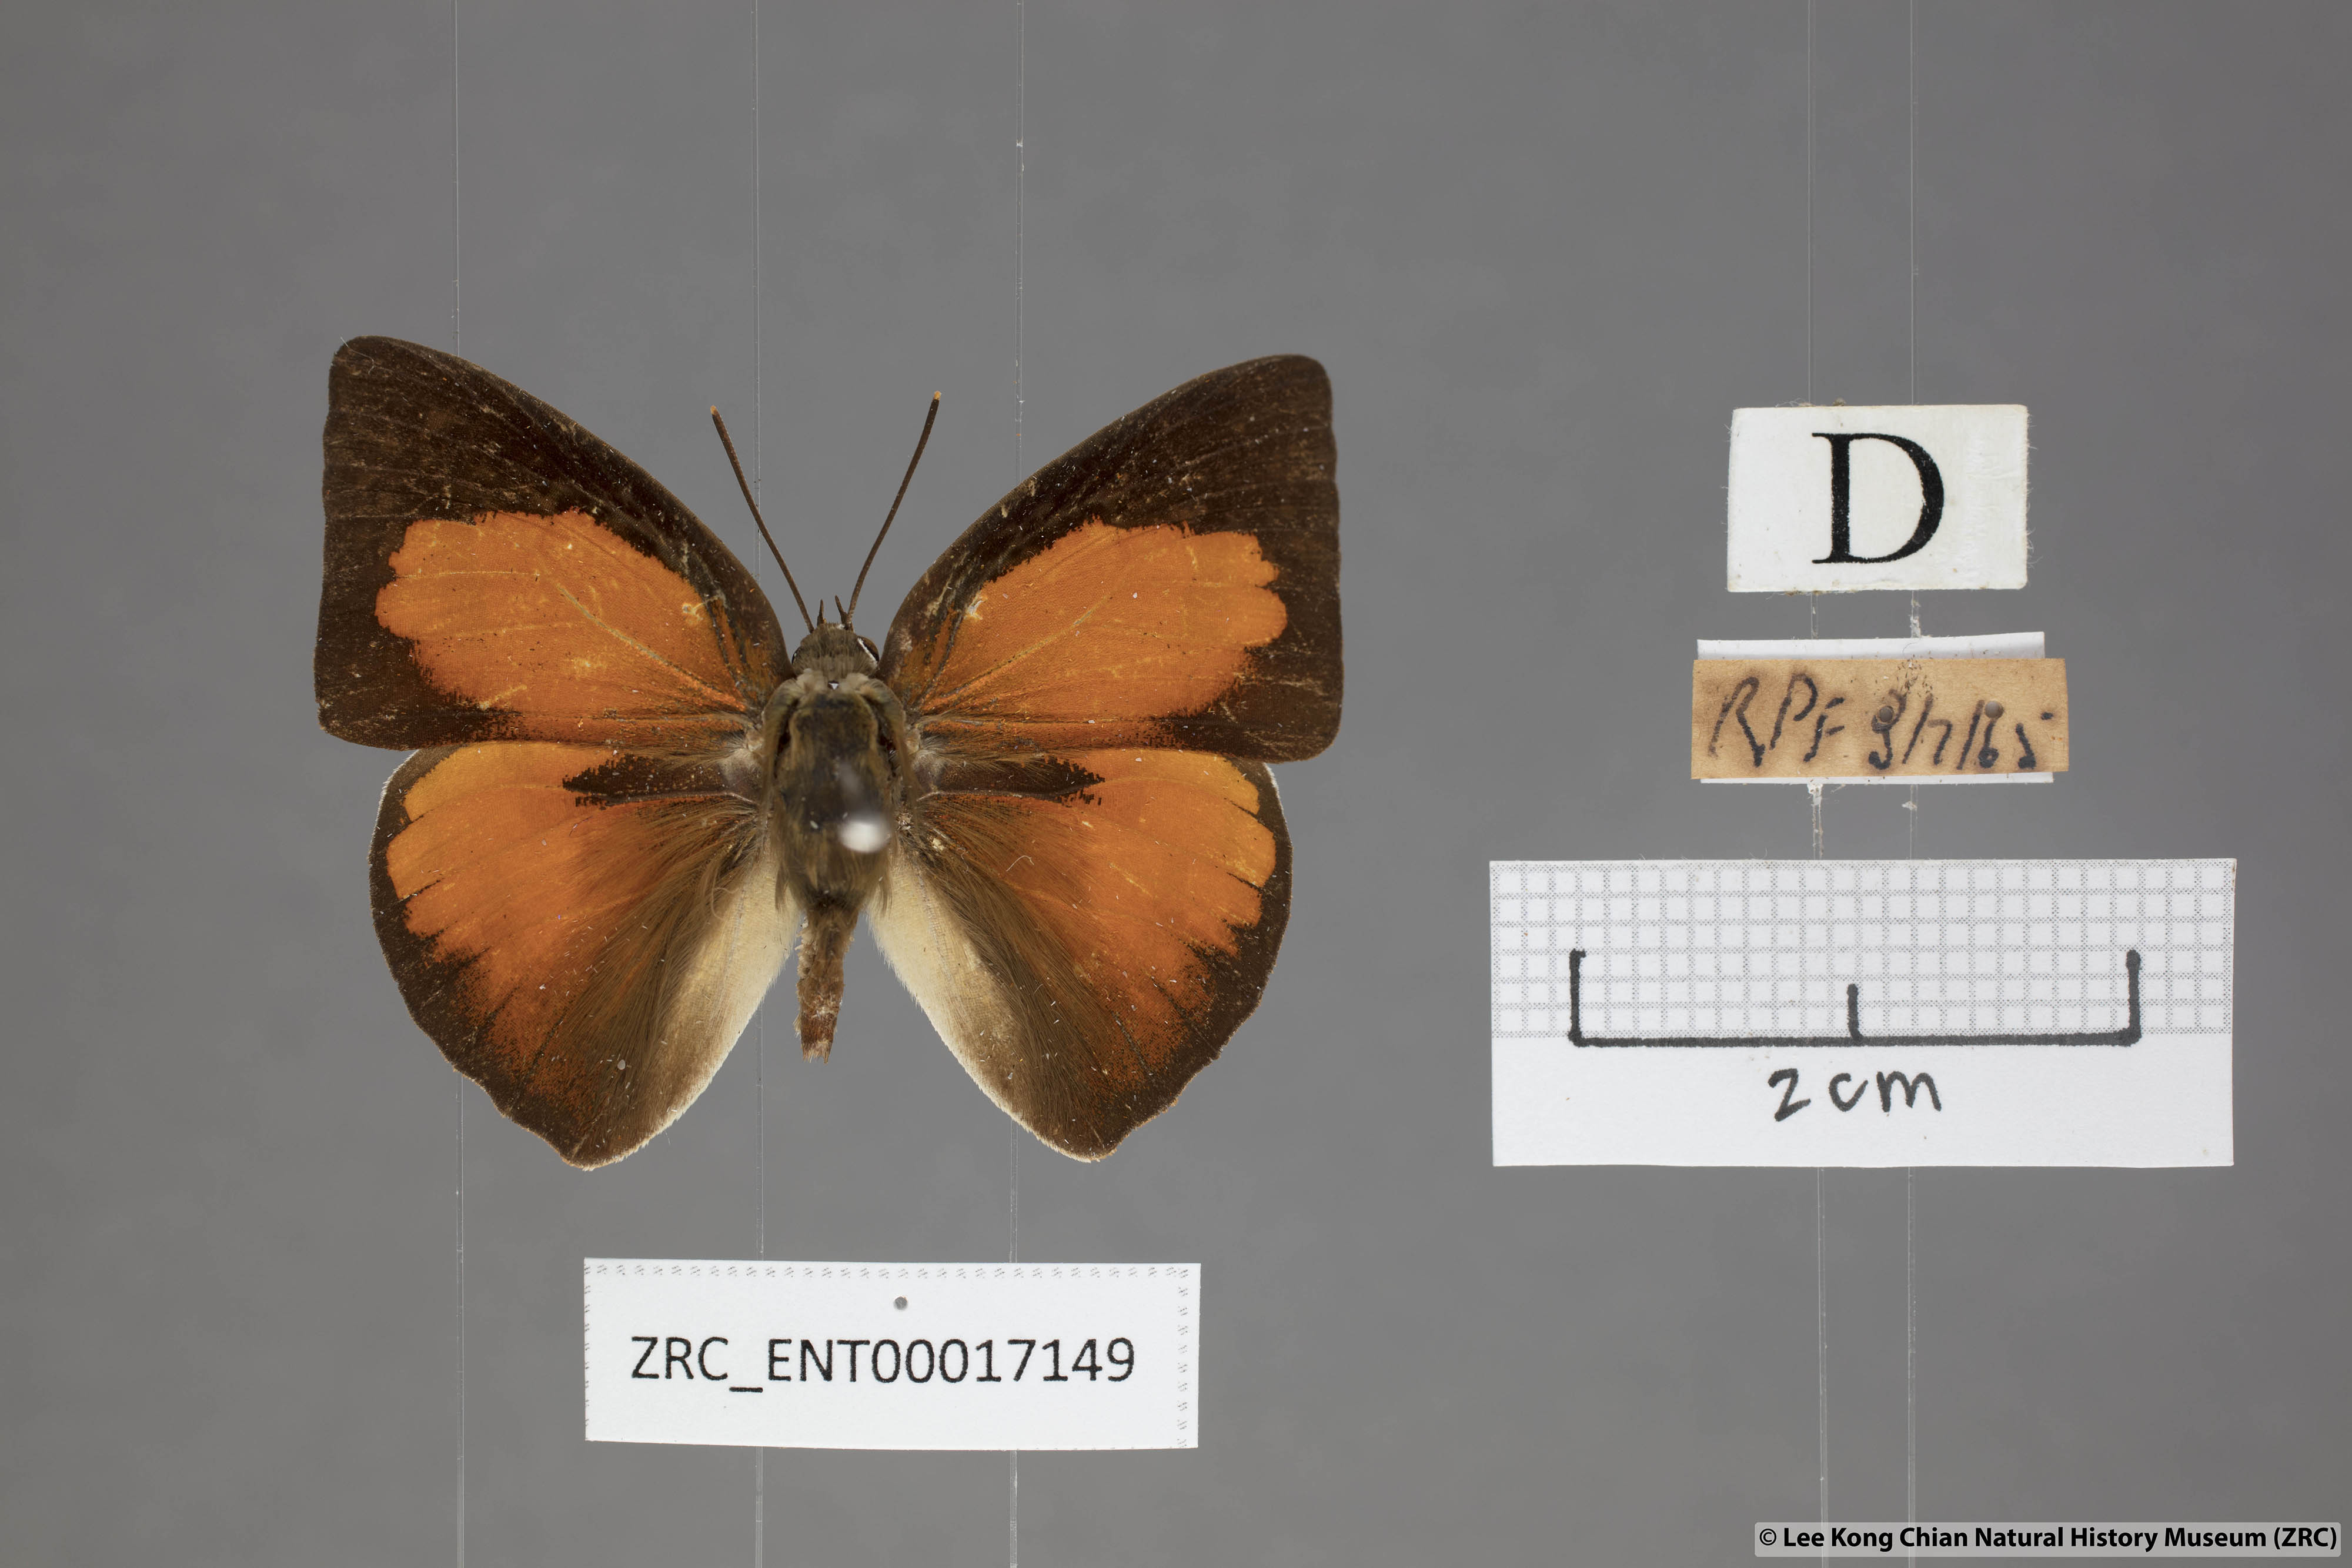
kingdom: Animalia
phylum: Arthropoda
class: Insecta
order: Lepidoptera
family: Lycaenidae
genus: Curetis
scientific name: Curetis santana
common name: Malayan sunbeam
